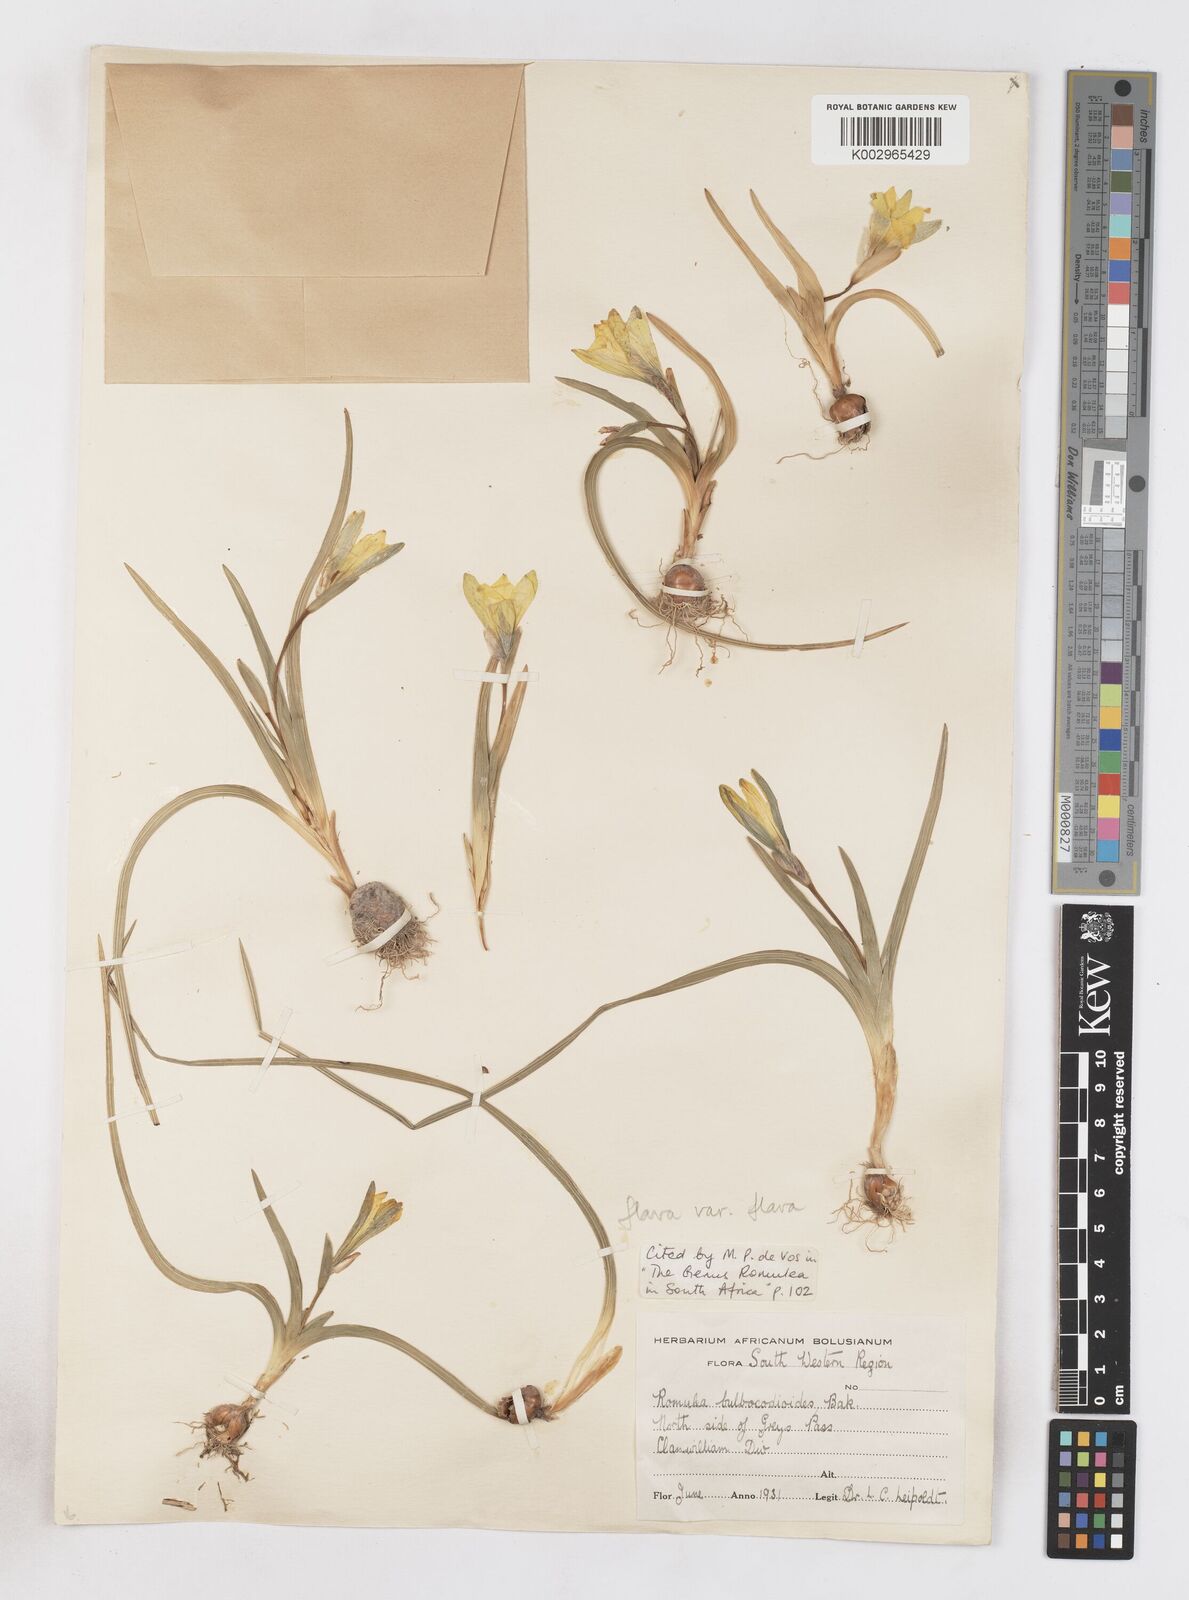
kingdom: Plantae
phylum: Tracheophyta
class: Liliopsida
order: Asparagales
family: Iridaceae
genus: Romulea
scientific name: Romulea flava
